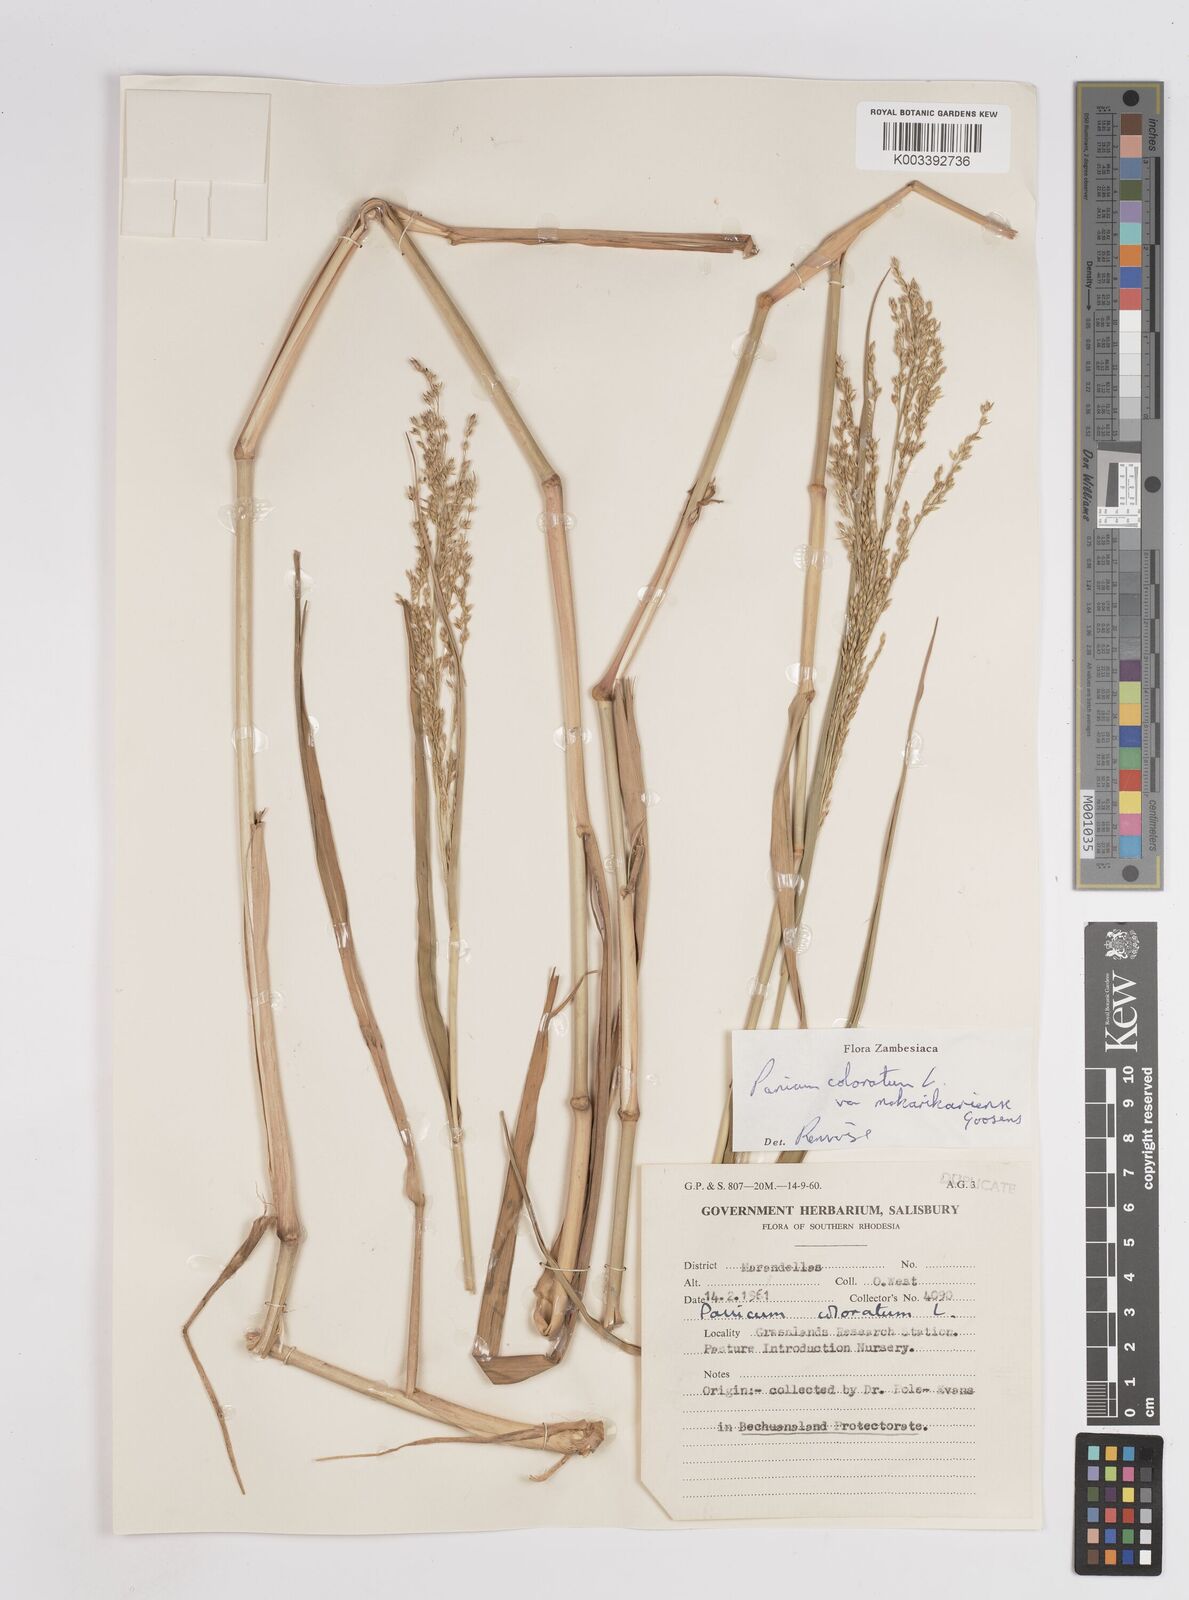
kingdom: Plantae
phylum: Tracheophyta
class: Liliopsida
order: Poales
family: Poaceae
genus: Panicum
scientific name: Panicum coloratum
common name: Kleingrass
